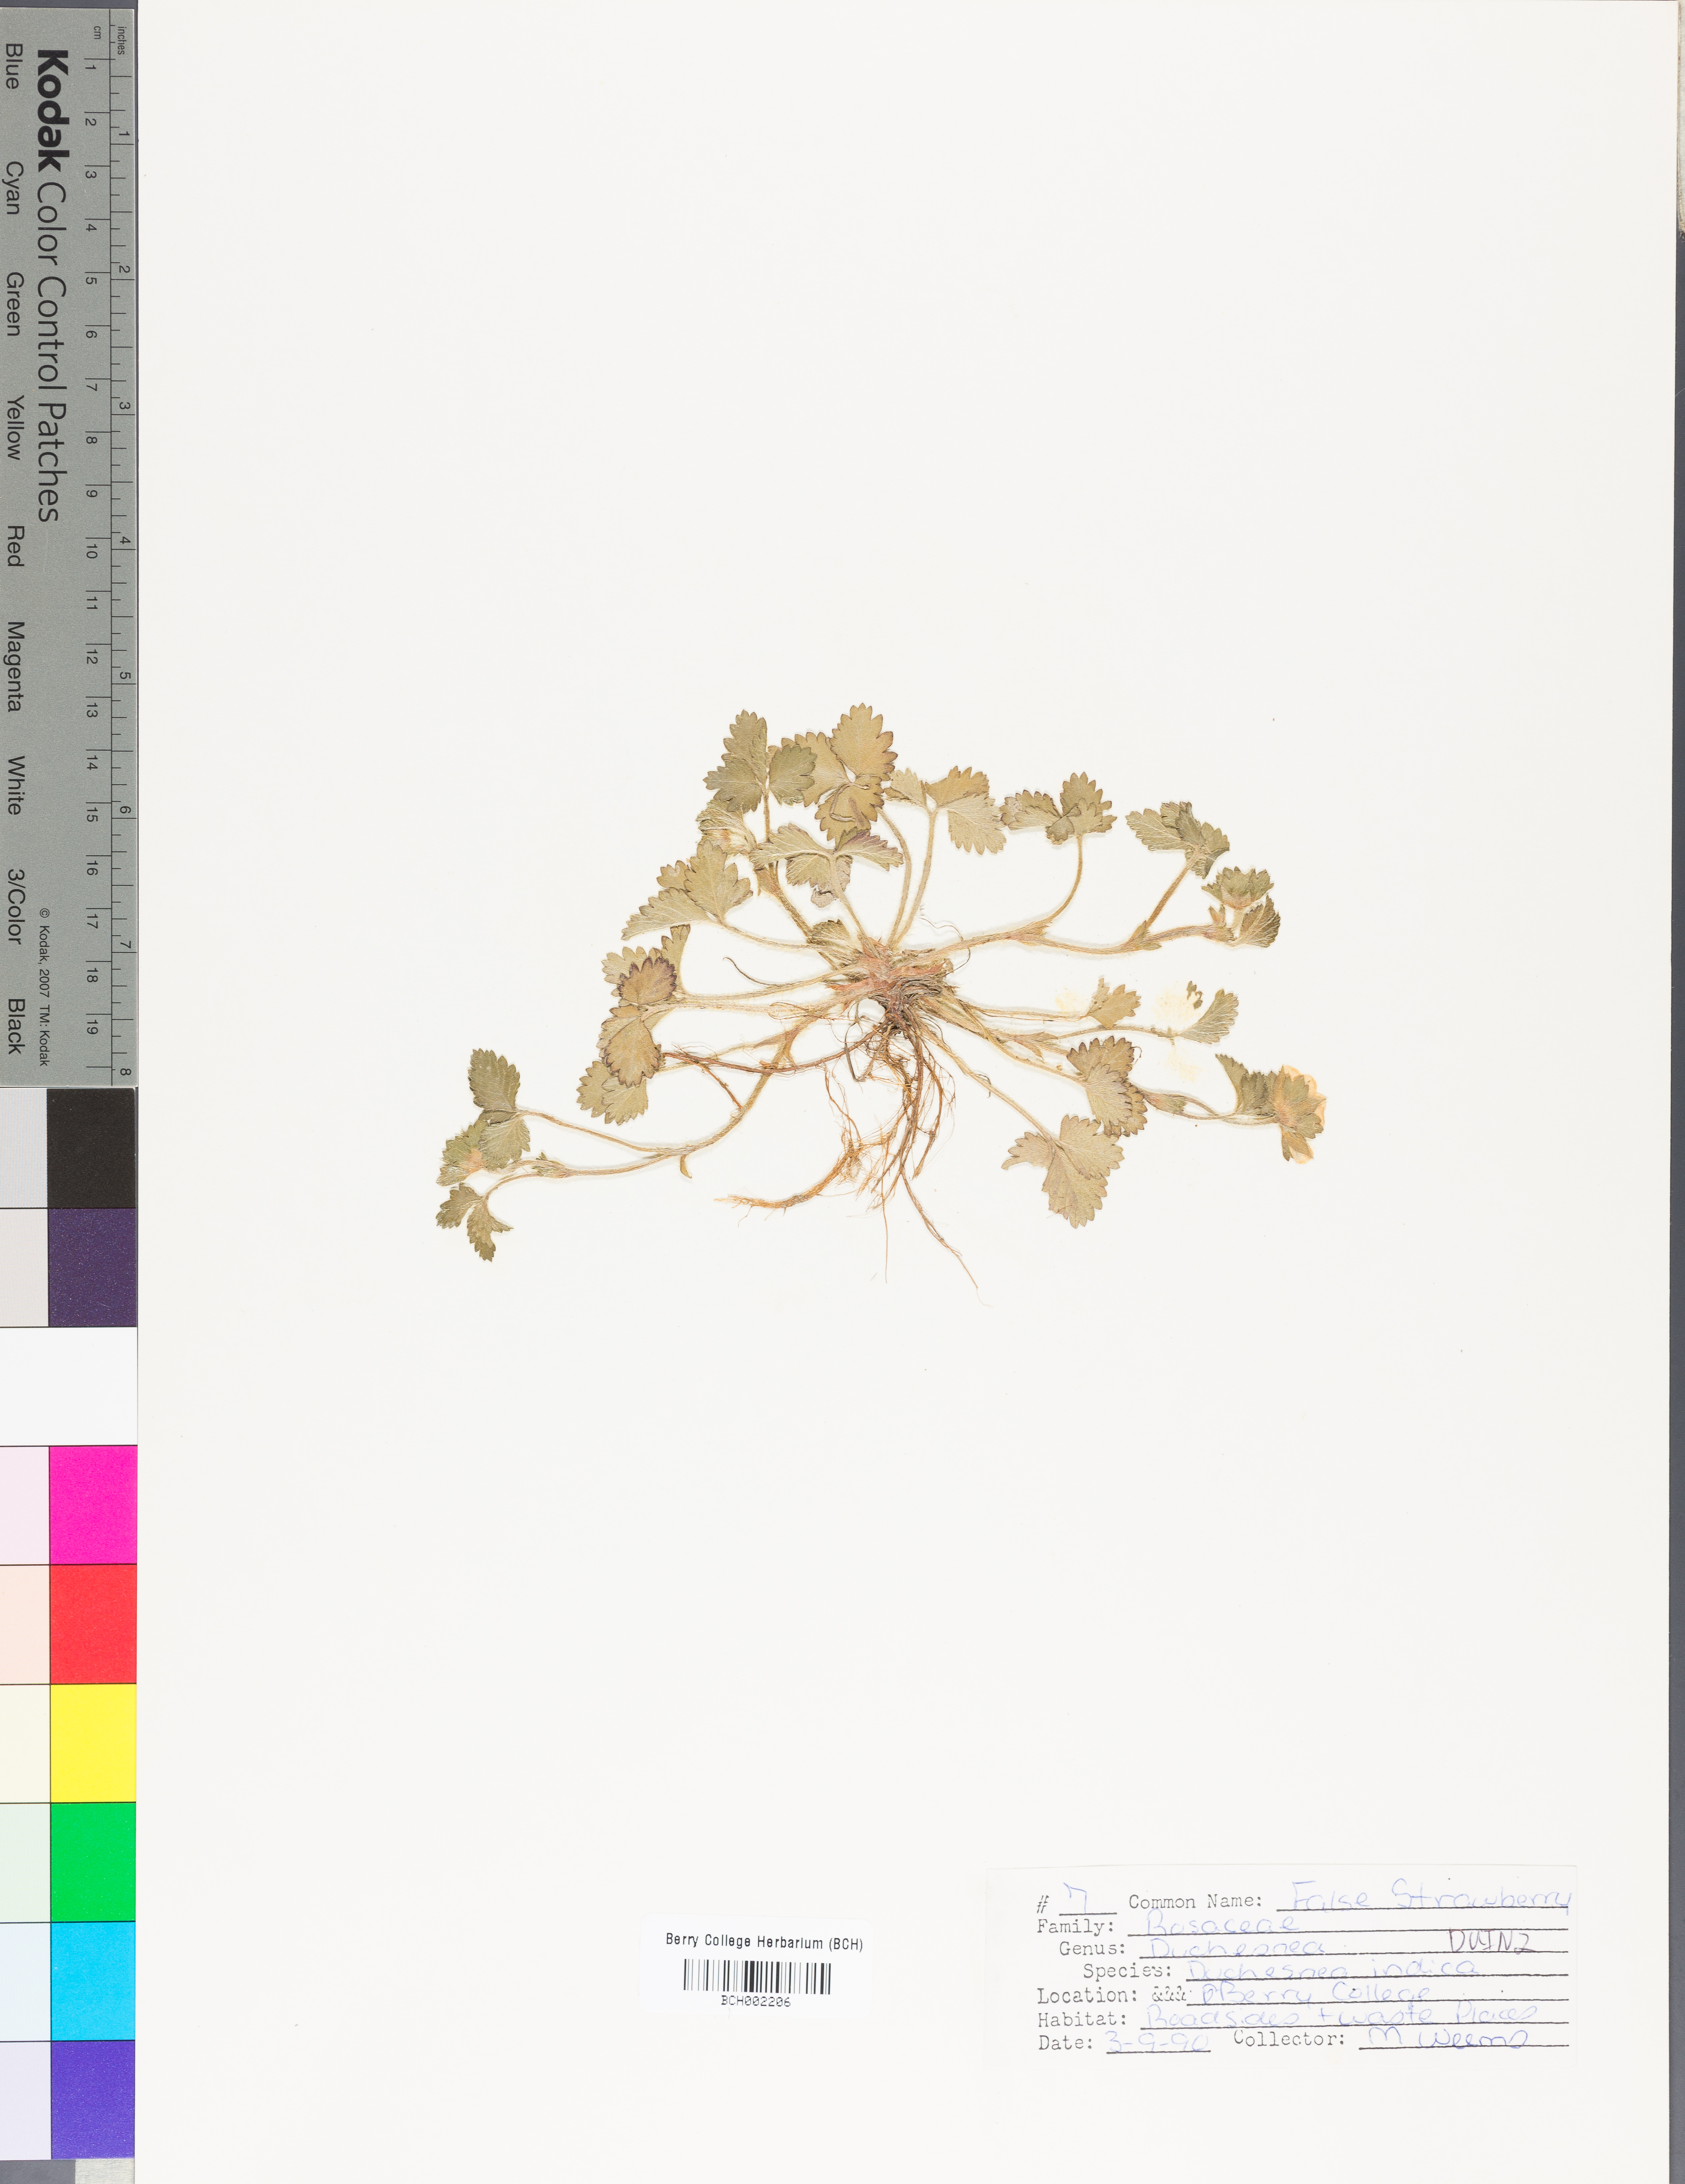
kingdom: Plantae
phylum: Tracheophyta
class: Magnoliopsida
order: Rosales
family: Rosaceae
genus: Potentilla
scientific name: Potentilla indica
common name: Yellow-flowered strawberry
